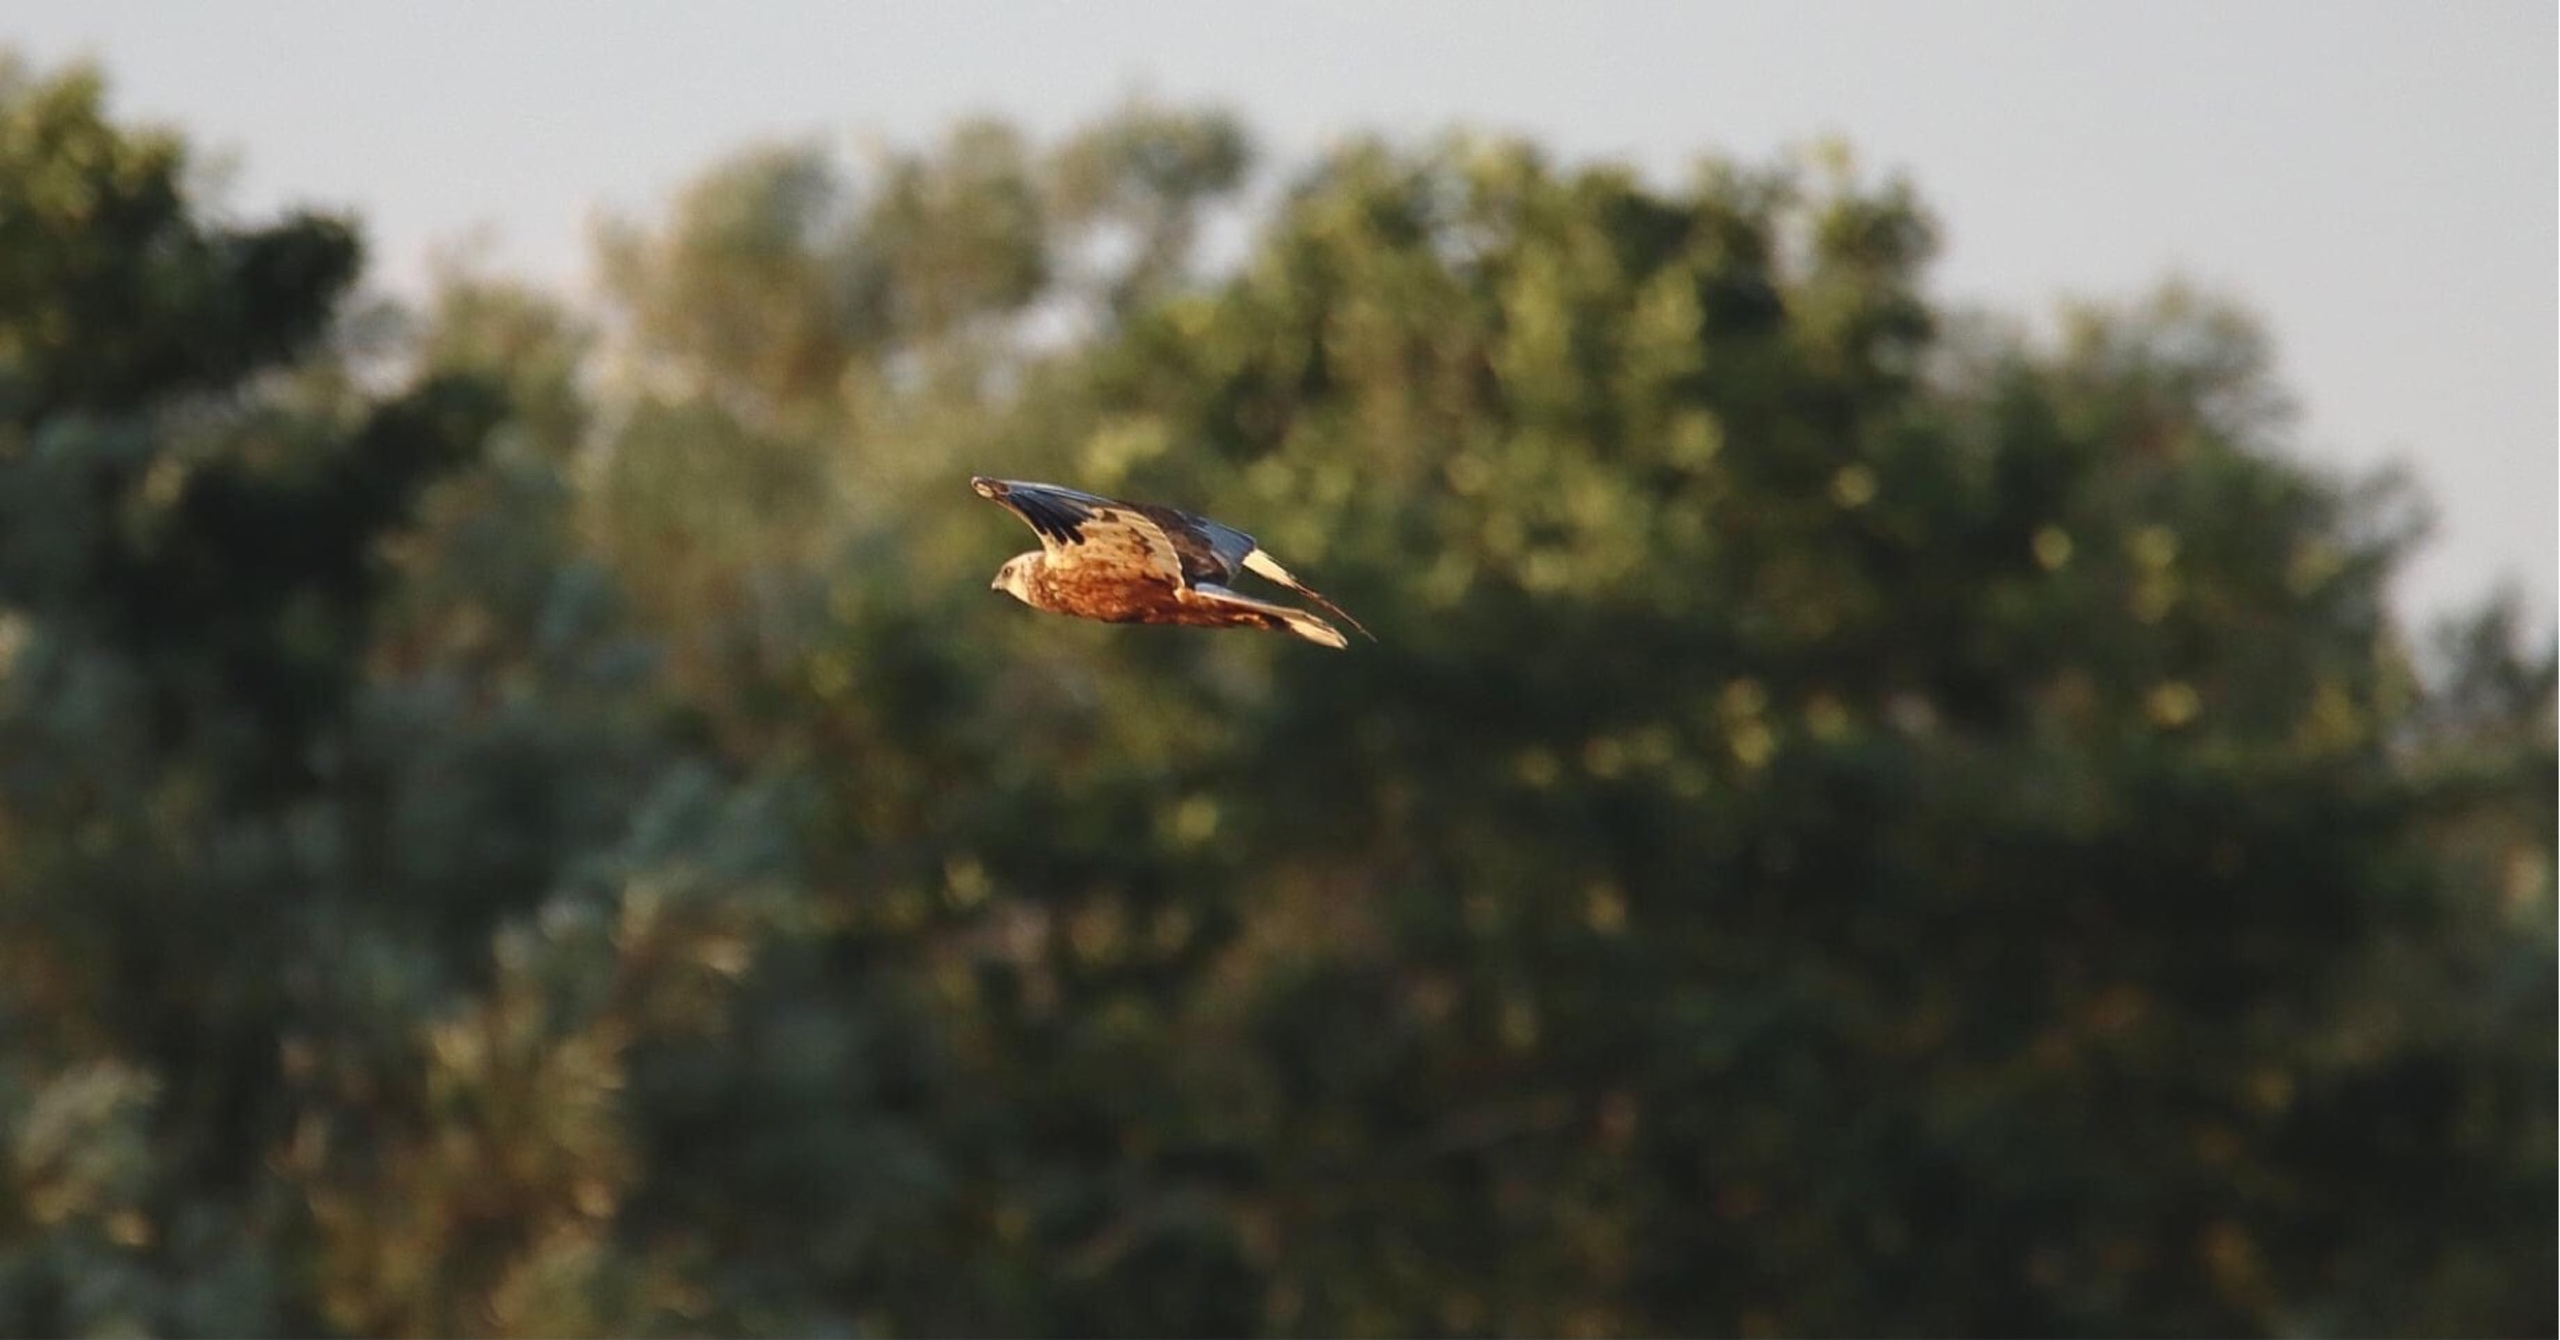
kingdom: Animalia
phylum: Chordata
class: Aves
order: Accipitriformes
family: Accipitridae
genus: Circus
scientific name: Circus aeruginosus
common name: Rørhøg
